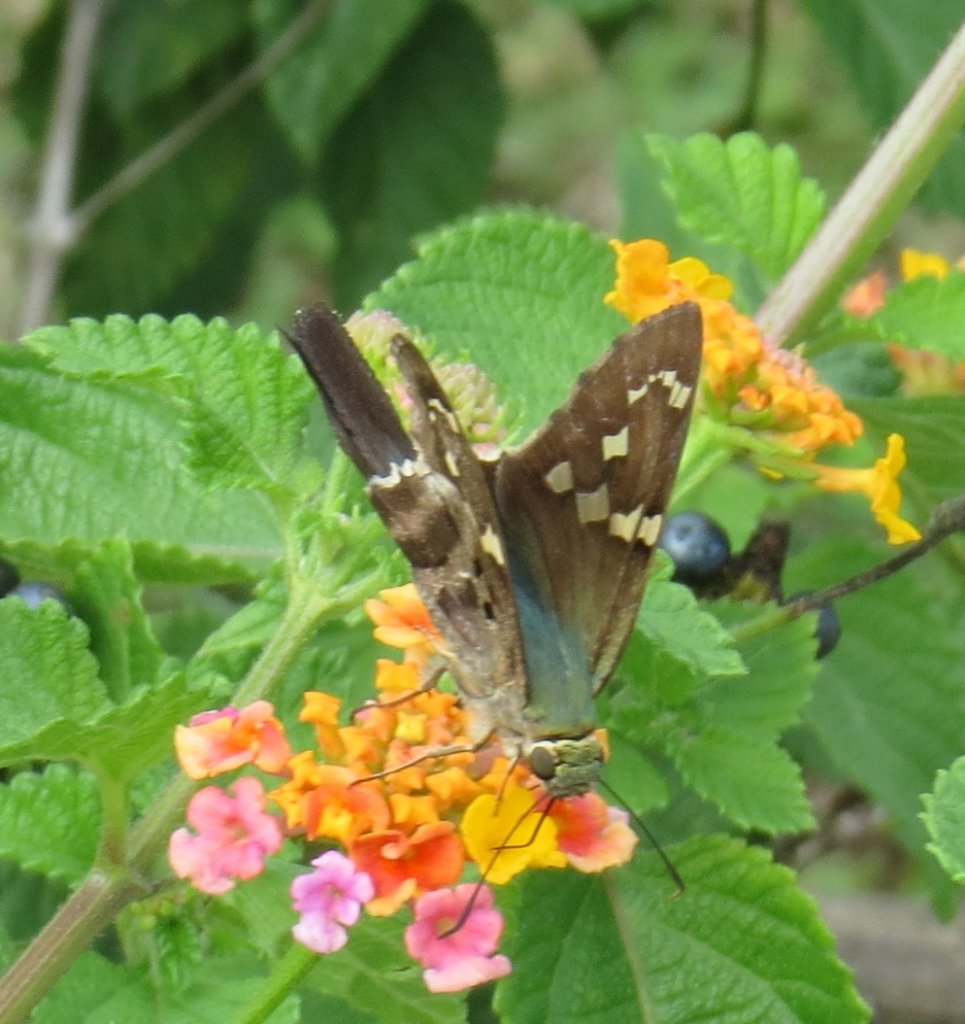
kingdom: Animalia
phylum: Arthropoda
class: Insecta
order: Lepidoptera
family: Hesperiidae
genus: Urbanus
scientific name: Urbanus proteus
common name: Long-tailed Skipper
